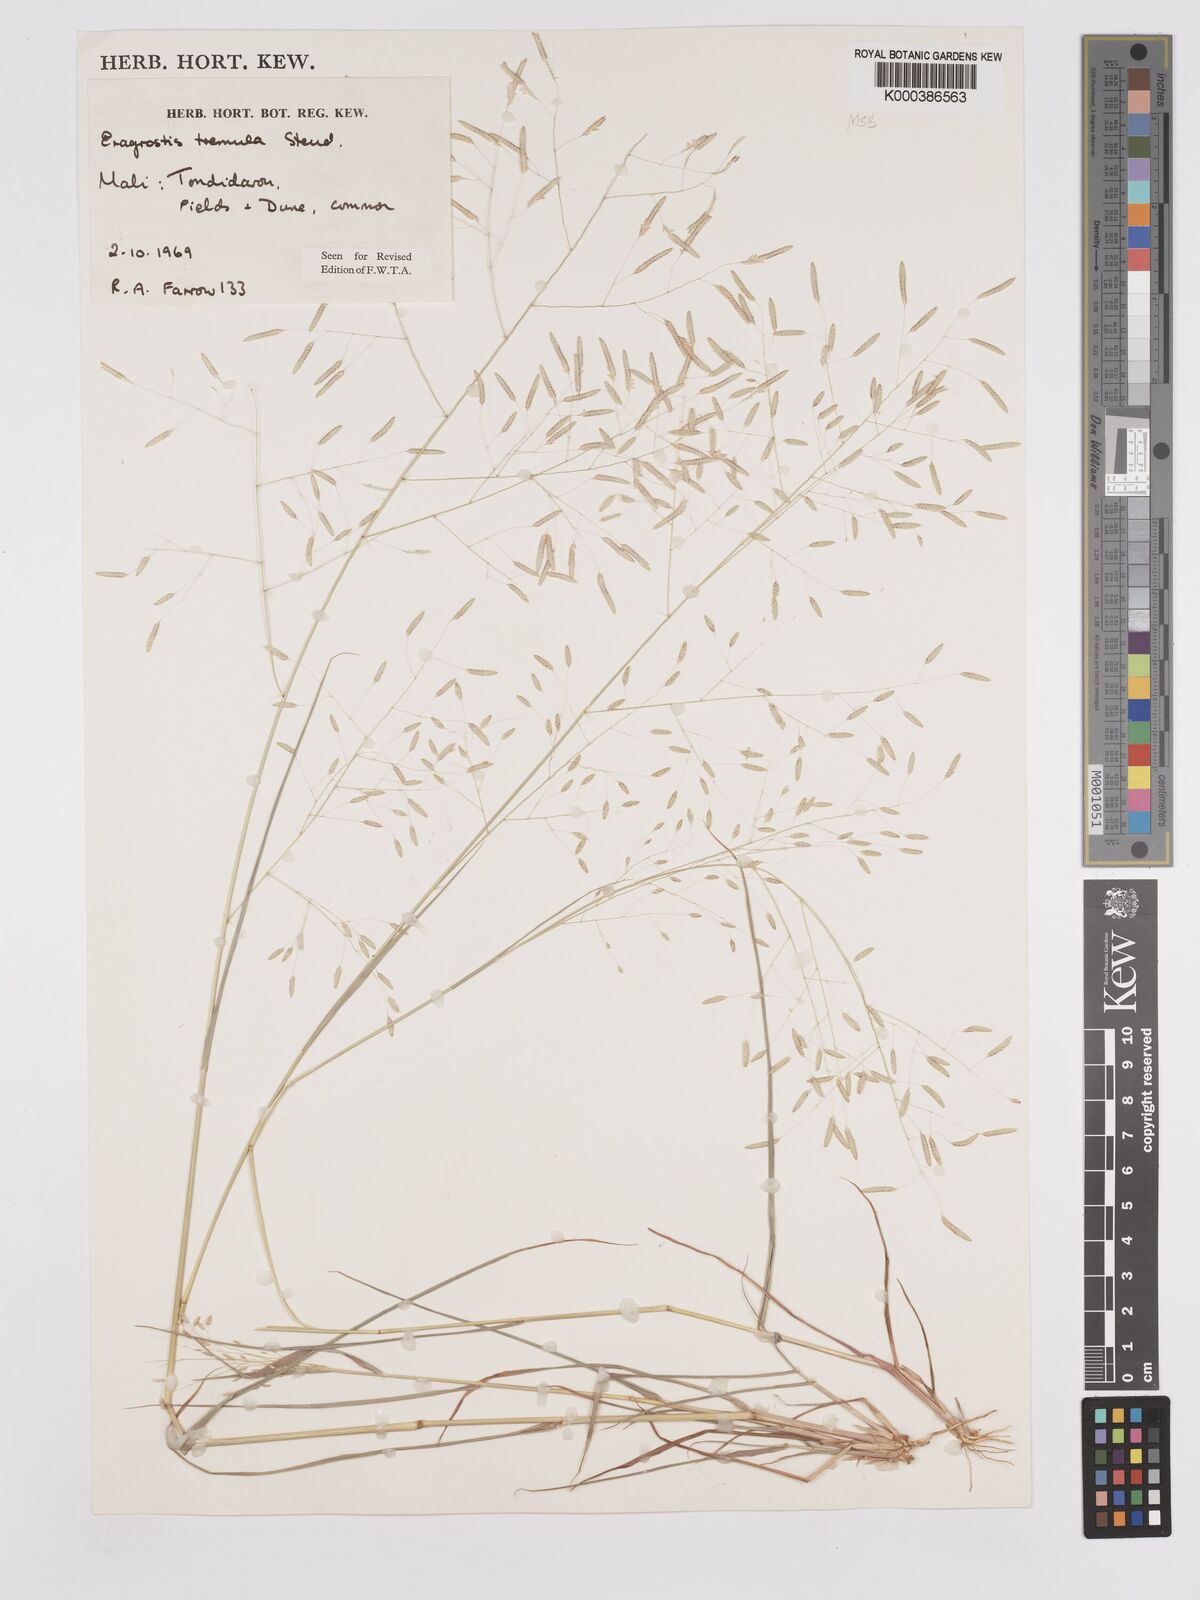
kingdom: Plantae
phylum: Tracheophyta
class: Liliopsida
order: Poales
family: Poaceae
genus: Eragrostis
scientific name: Eragrostis tremula
